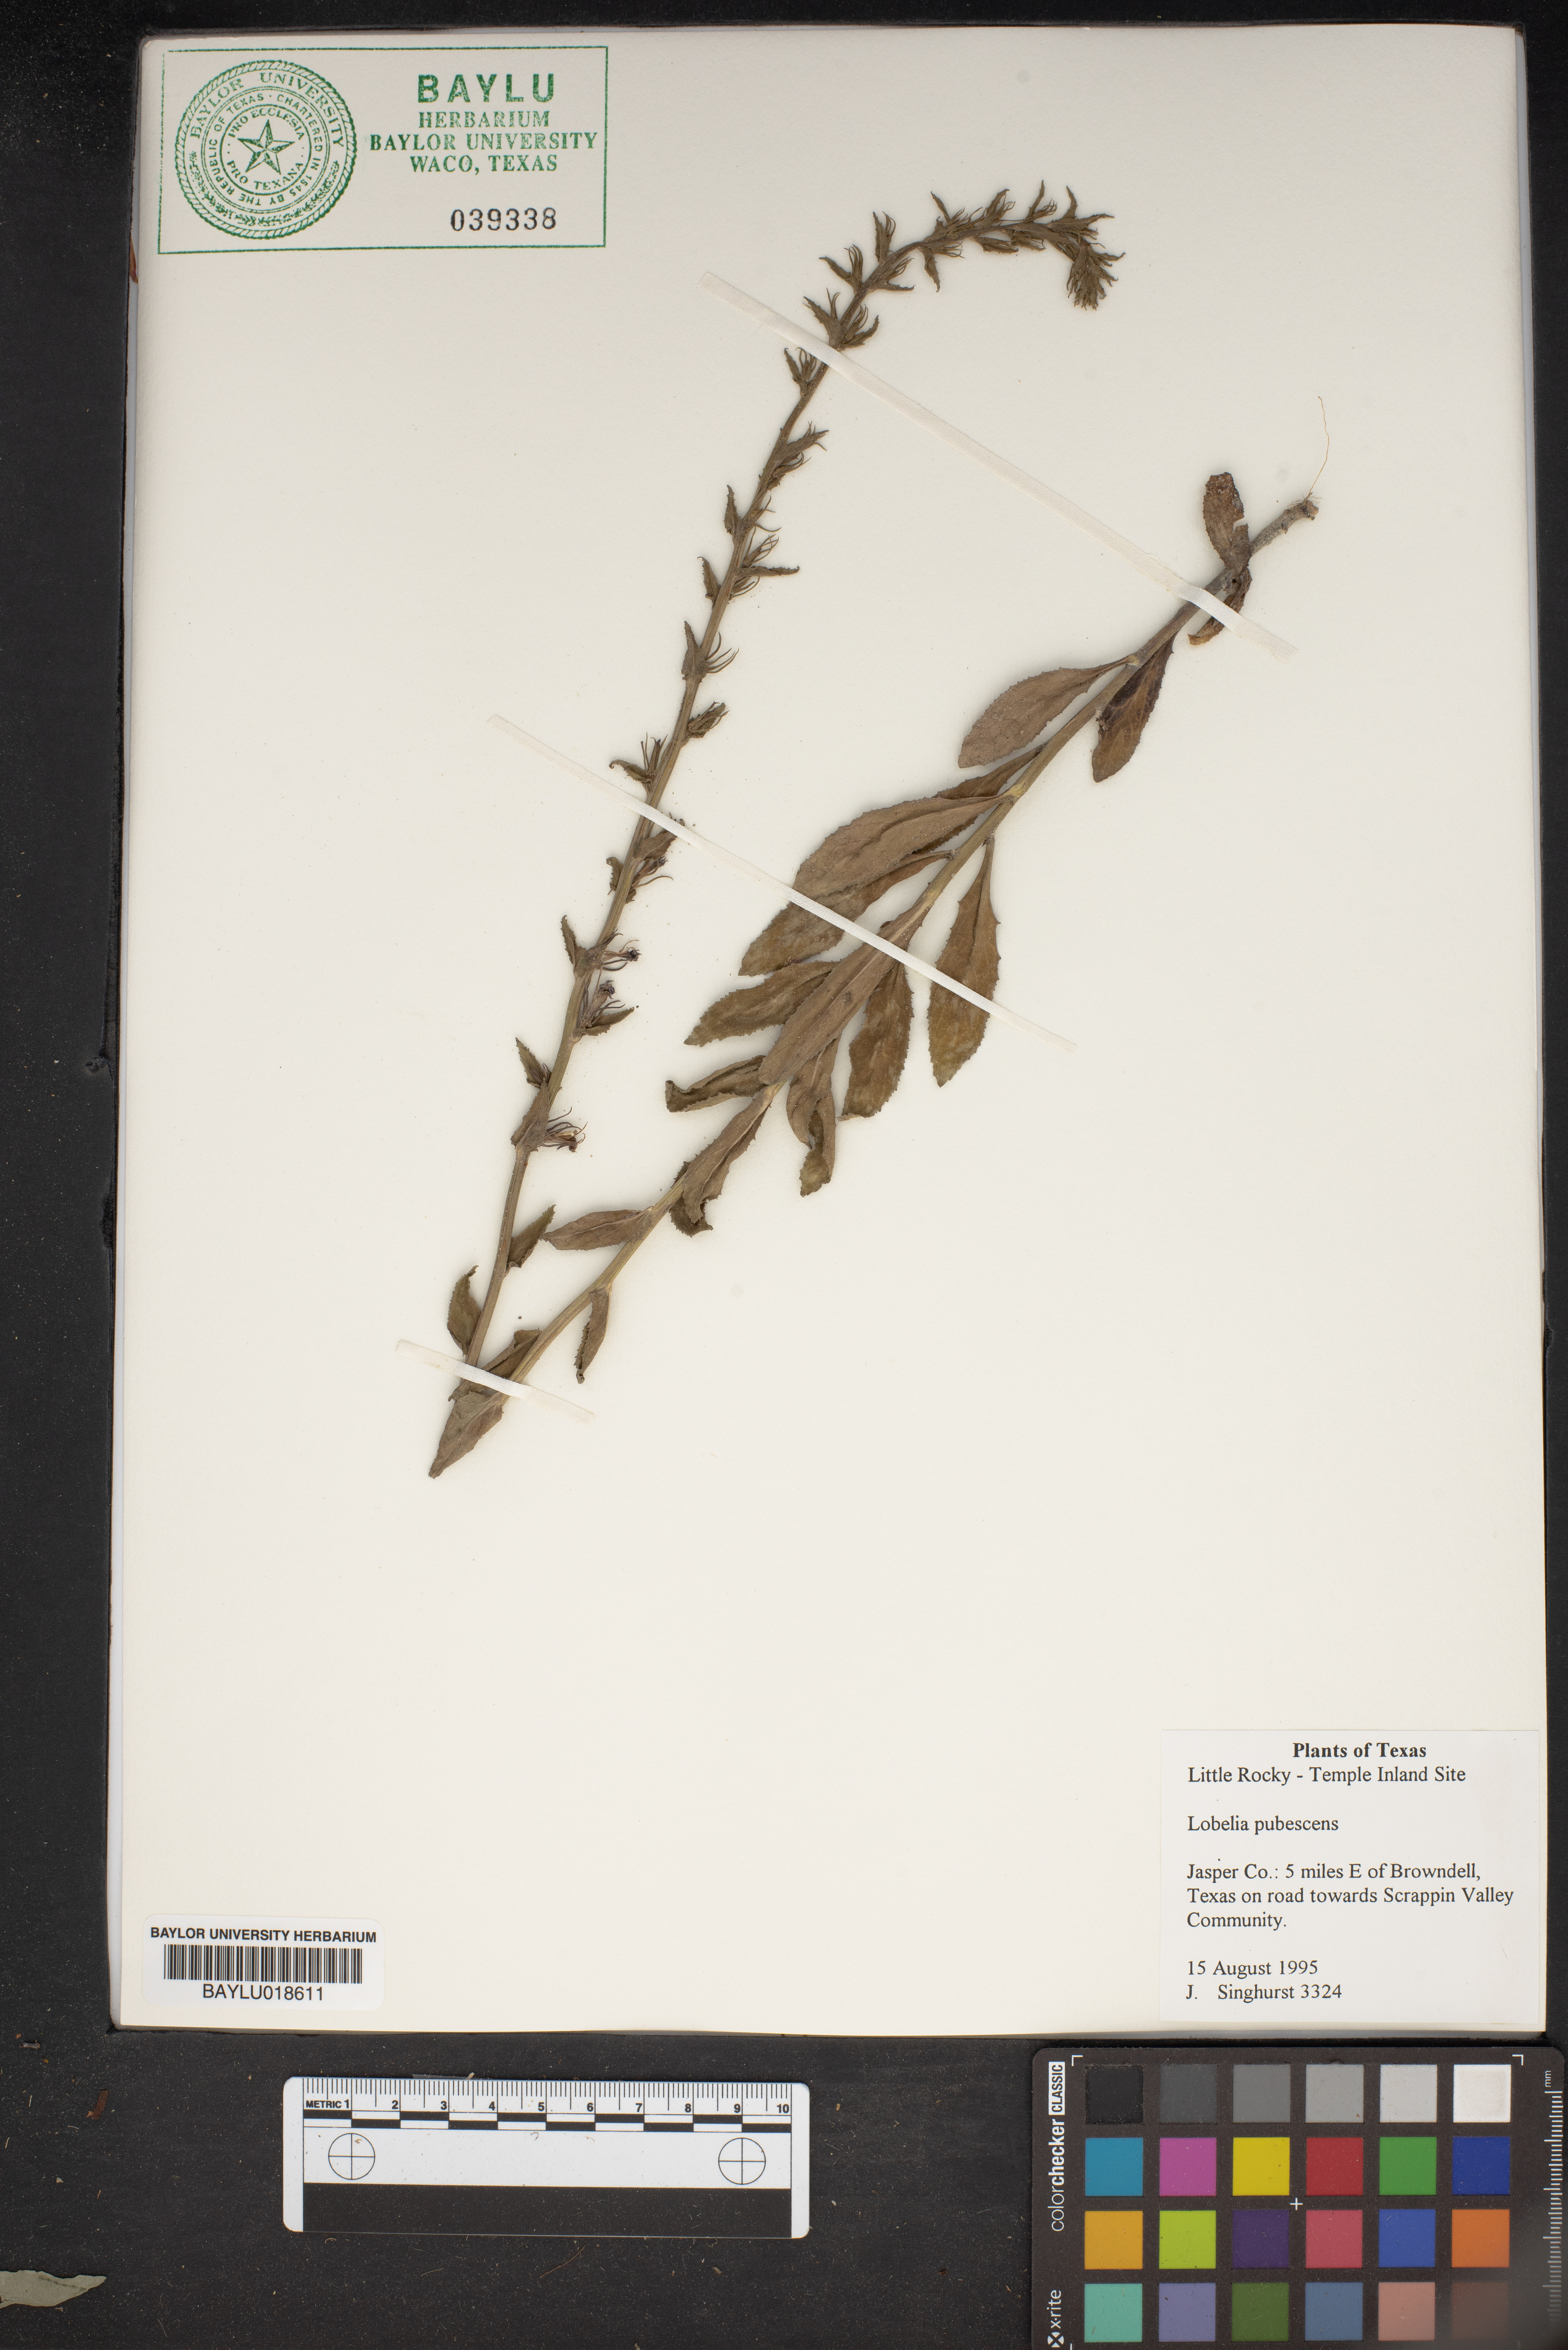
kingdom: Plantae
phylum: Tracheophyta
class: Magnoliopsida
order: Asterales
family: Campanulaceae
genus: Lobelia
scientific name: Lobelia pubescens
